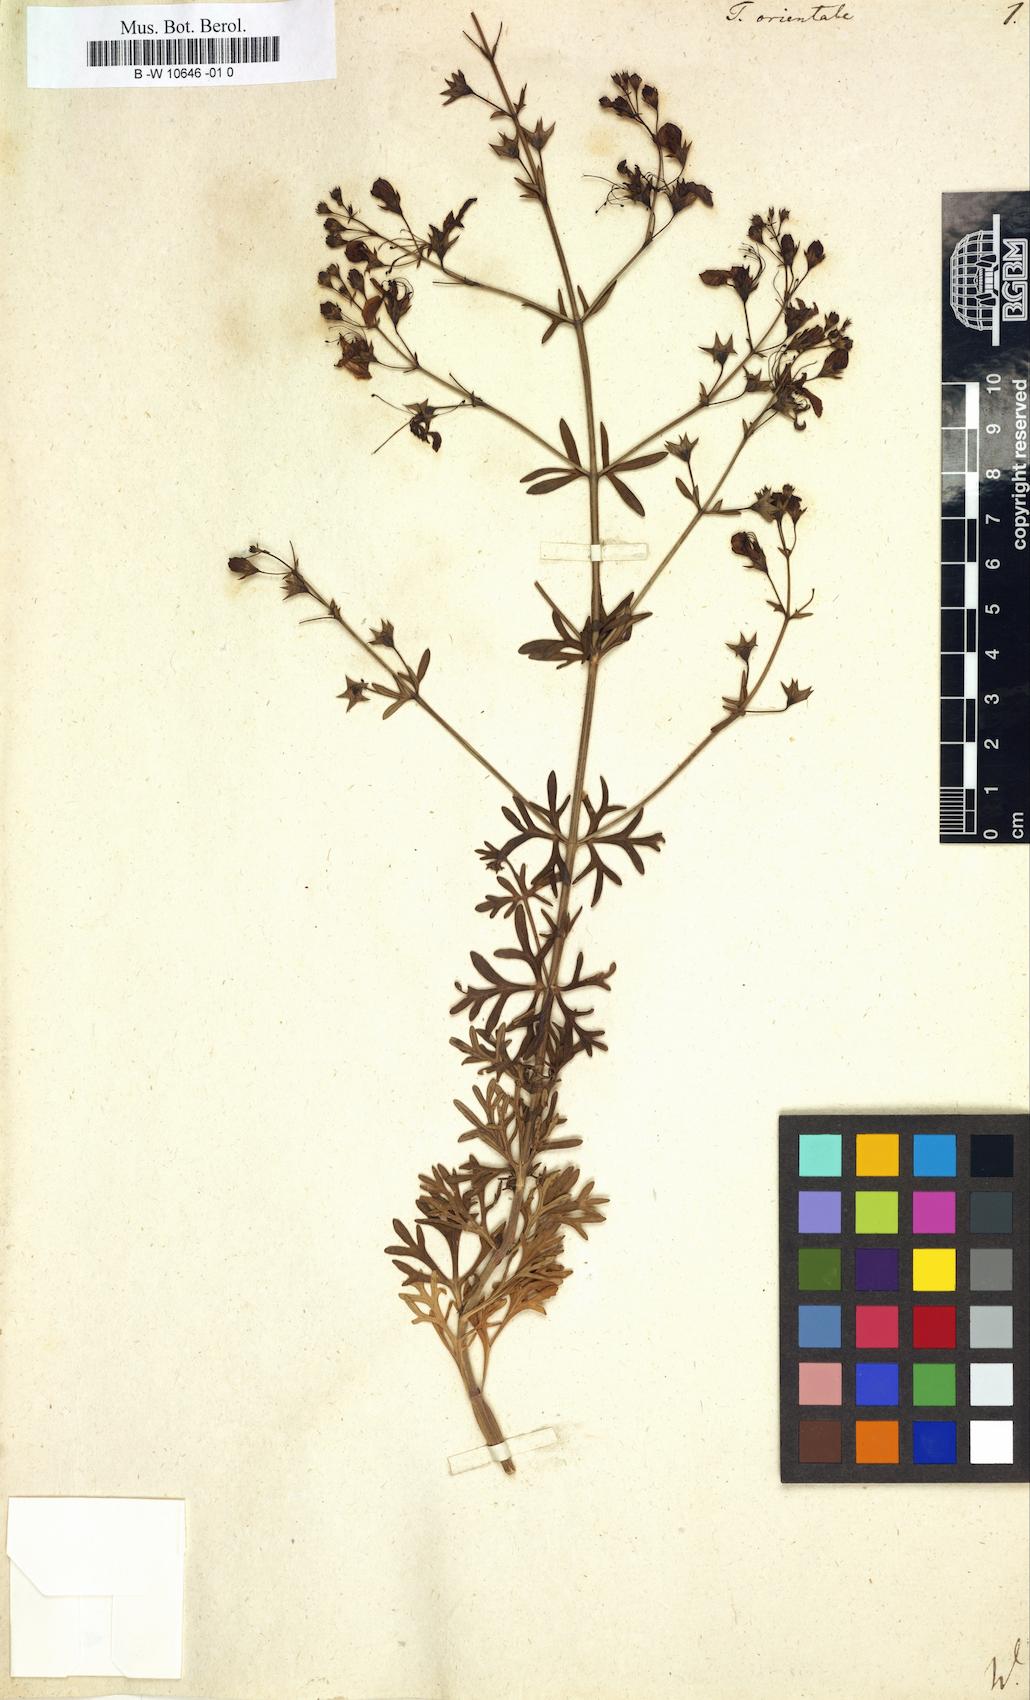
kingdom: Plantae
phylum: Tracheophyta
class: Magnoliopsida
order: Lamiales
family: Lamiaceae
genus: Teucrium
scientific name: Teucrium orientale
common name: Oriental germander
